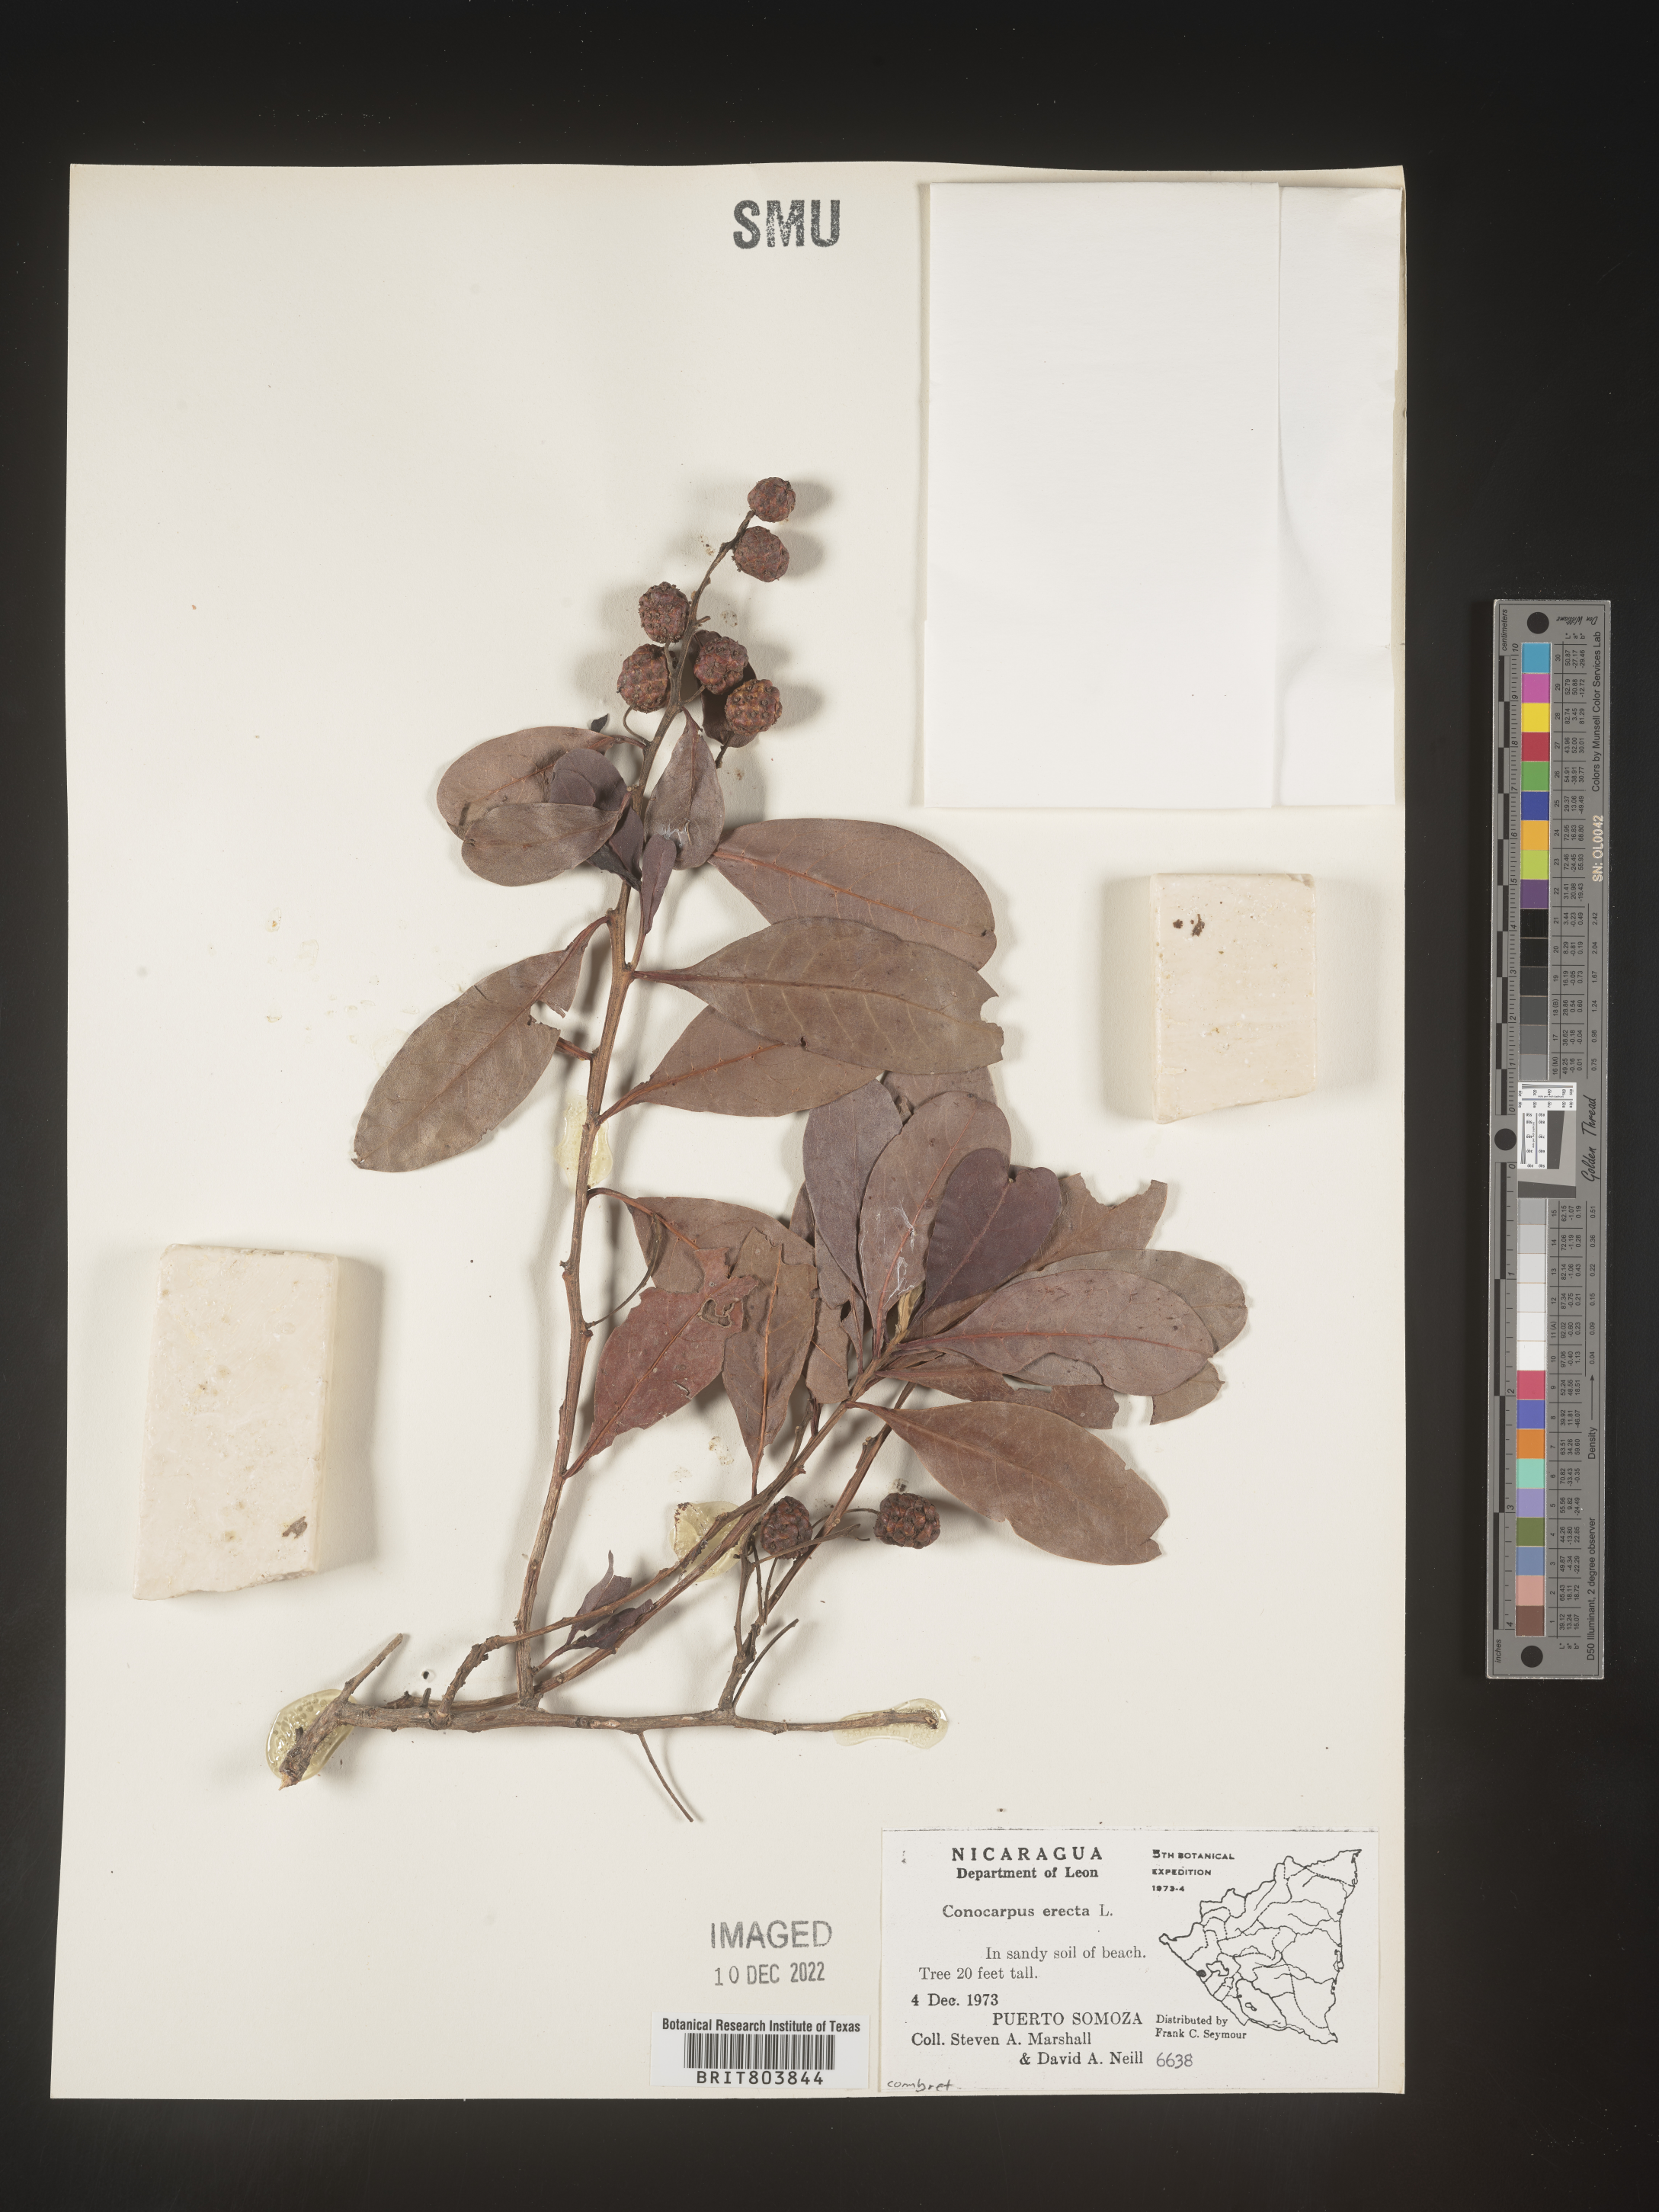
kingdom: Plantae
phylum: Tracheophyta
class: Magnoliopsida
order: Myrtales
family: Combretaceae
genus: Conocarpus
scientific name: Conocarpus
